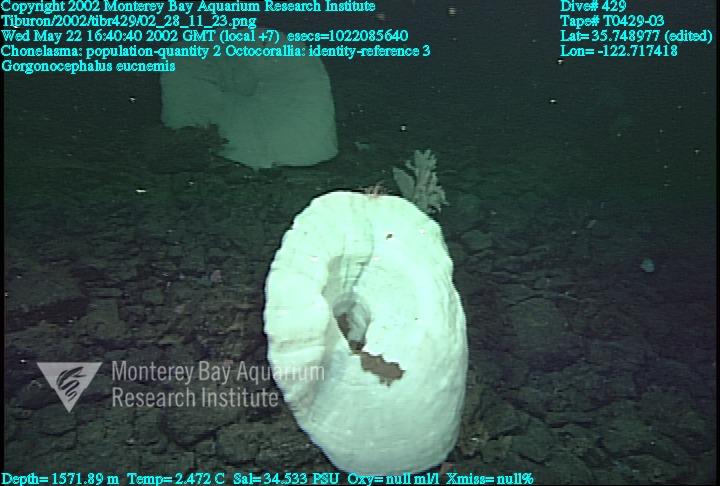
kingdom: Animalia
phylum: Porifera
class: Hexactinellida
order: Sceptrulophora
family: Euretidae
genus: Chonelasma
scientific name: Chonelasma
